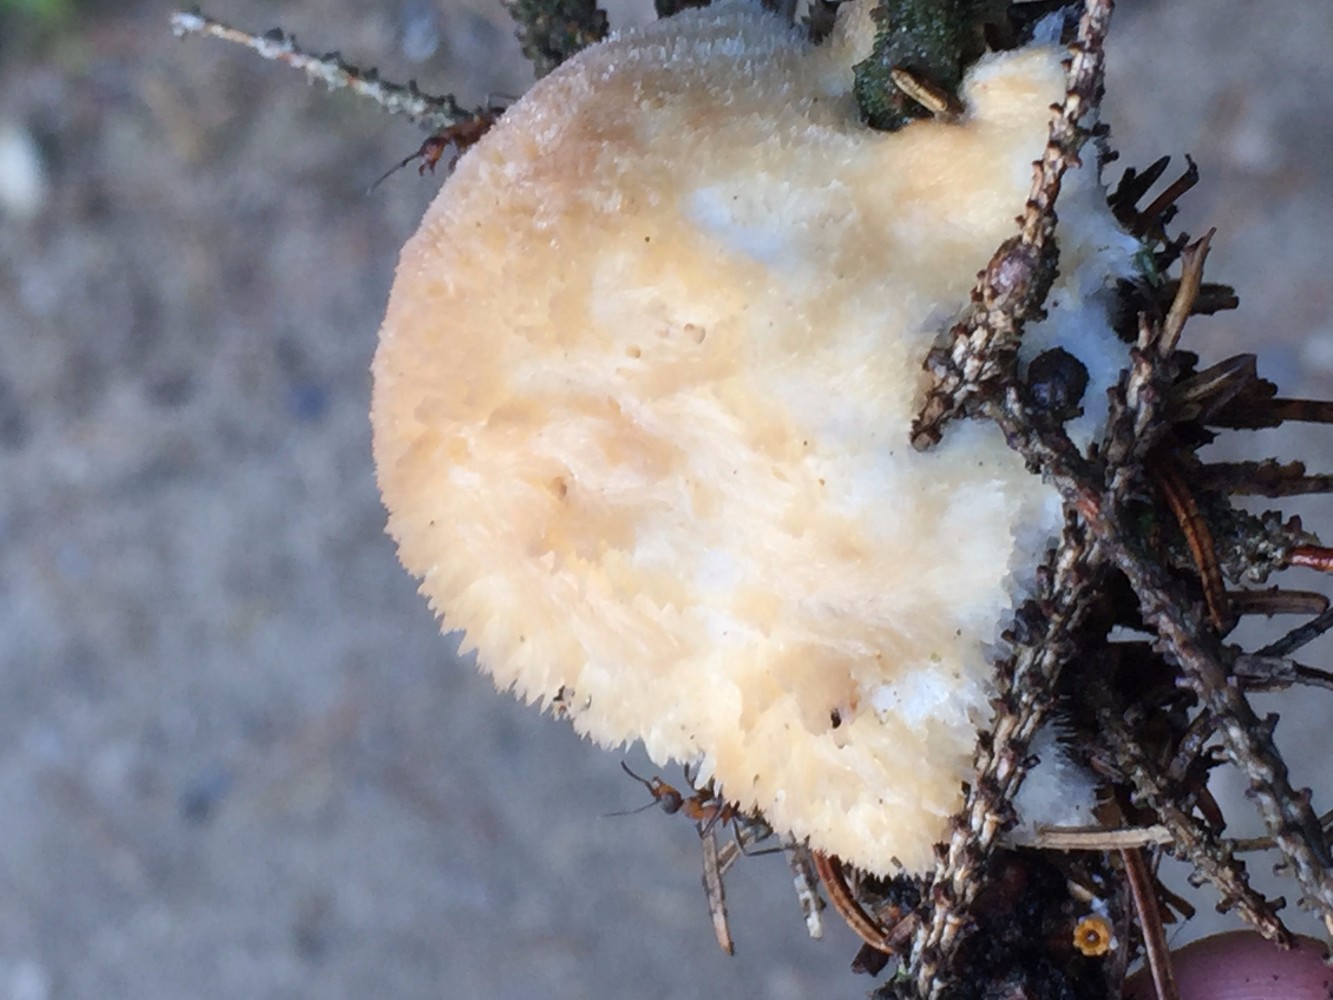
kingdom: Fungi
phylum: Basidiomycota
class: Agaricomycetes
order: Polyporales
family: Dacryobolaceae
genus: Postia
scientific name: Postia ptychogaster
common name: støvende kødporesvamp
